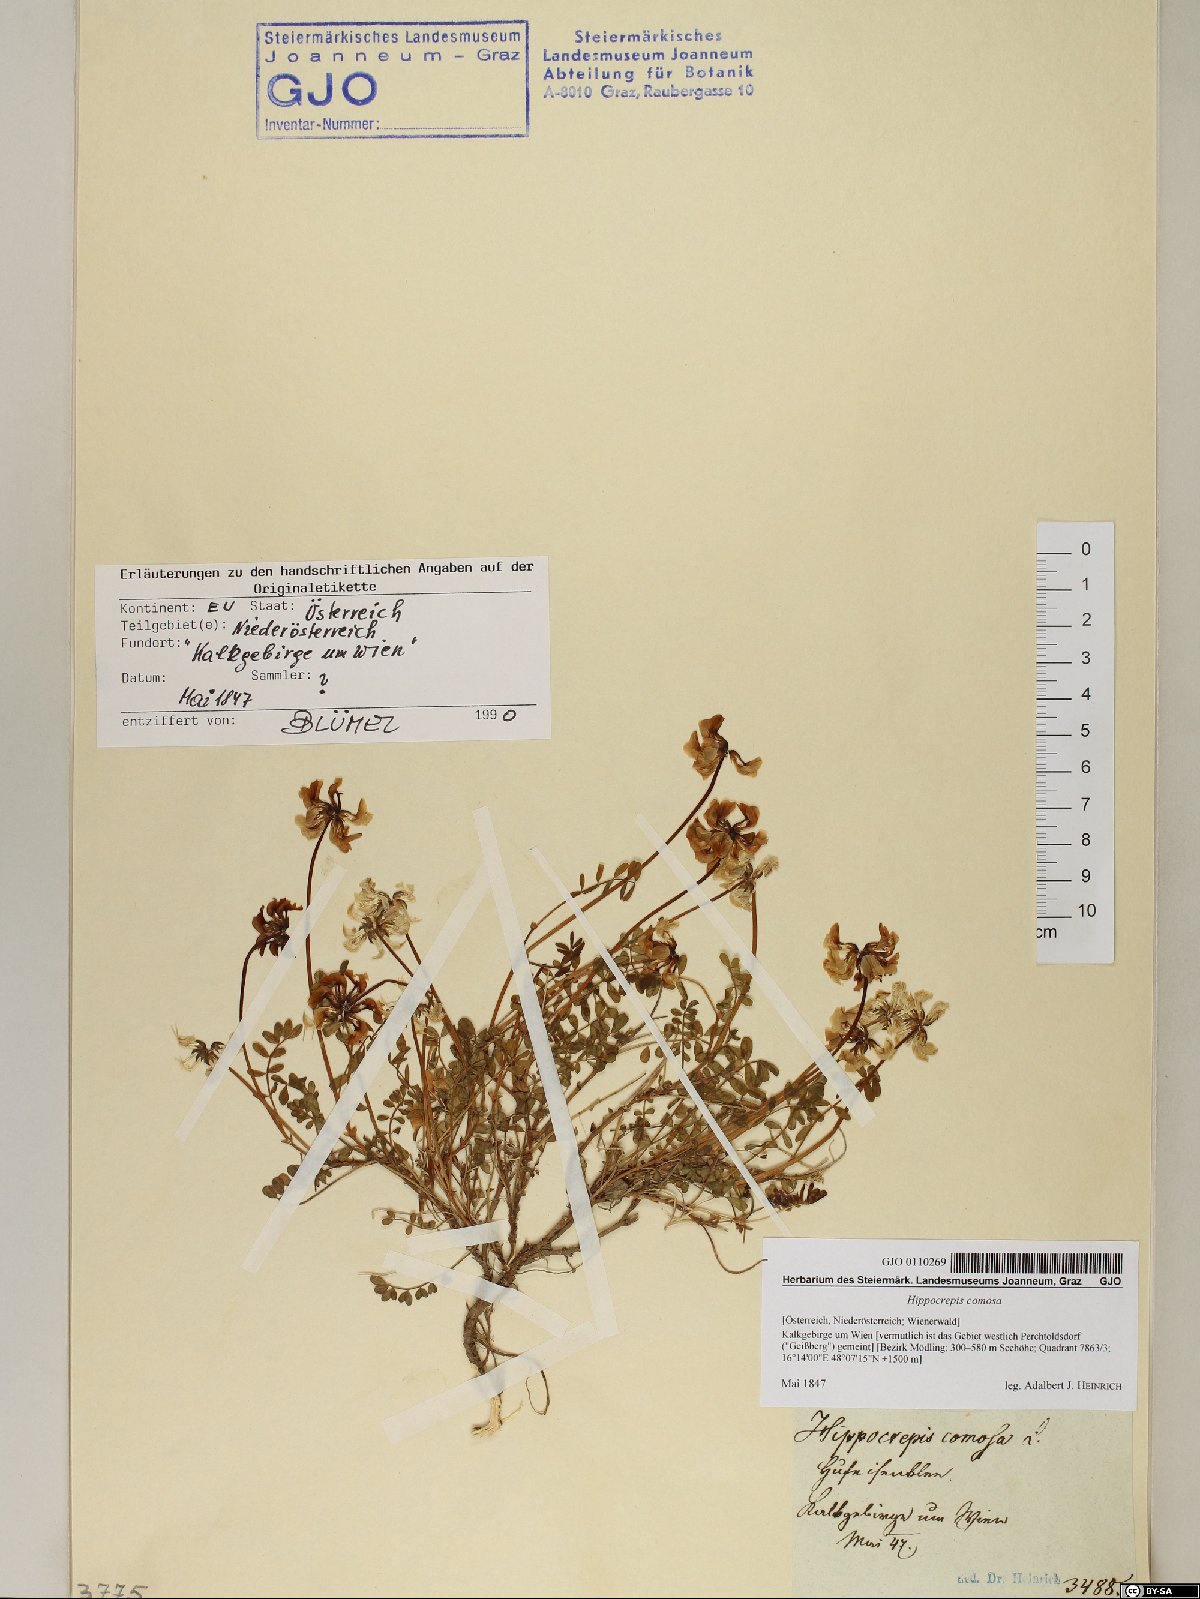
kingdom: Plantae
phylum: Tracheophyta
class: Magnoliopsida
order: Fabales
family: Fabaceae
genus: Hippocrepis
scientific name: Hippocrepis comosa
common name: Horseshoe vetch
